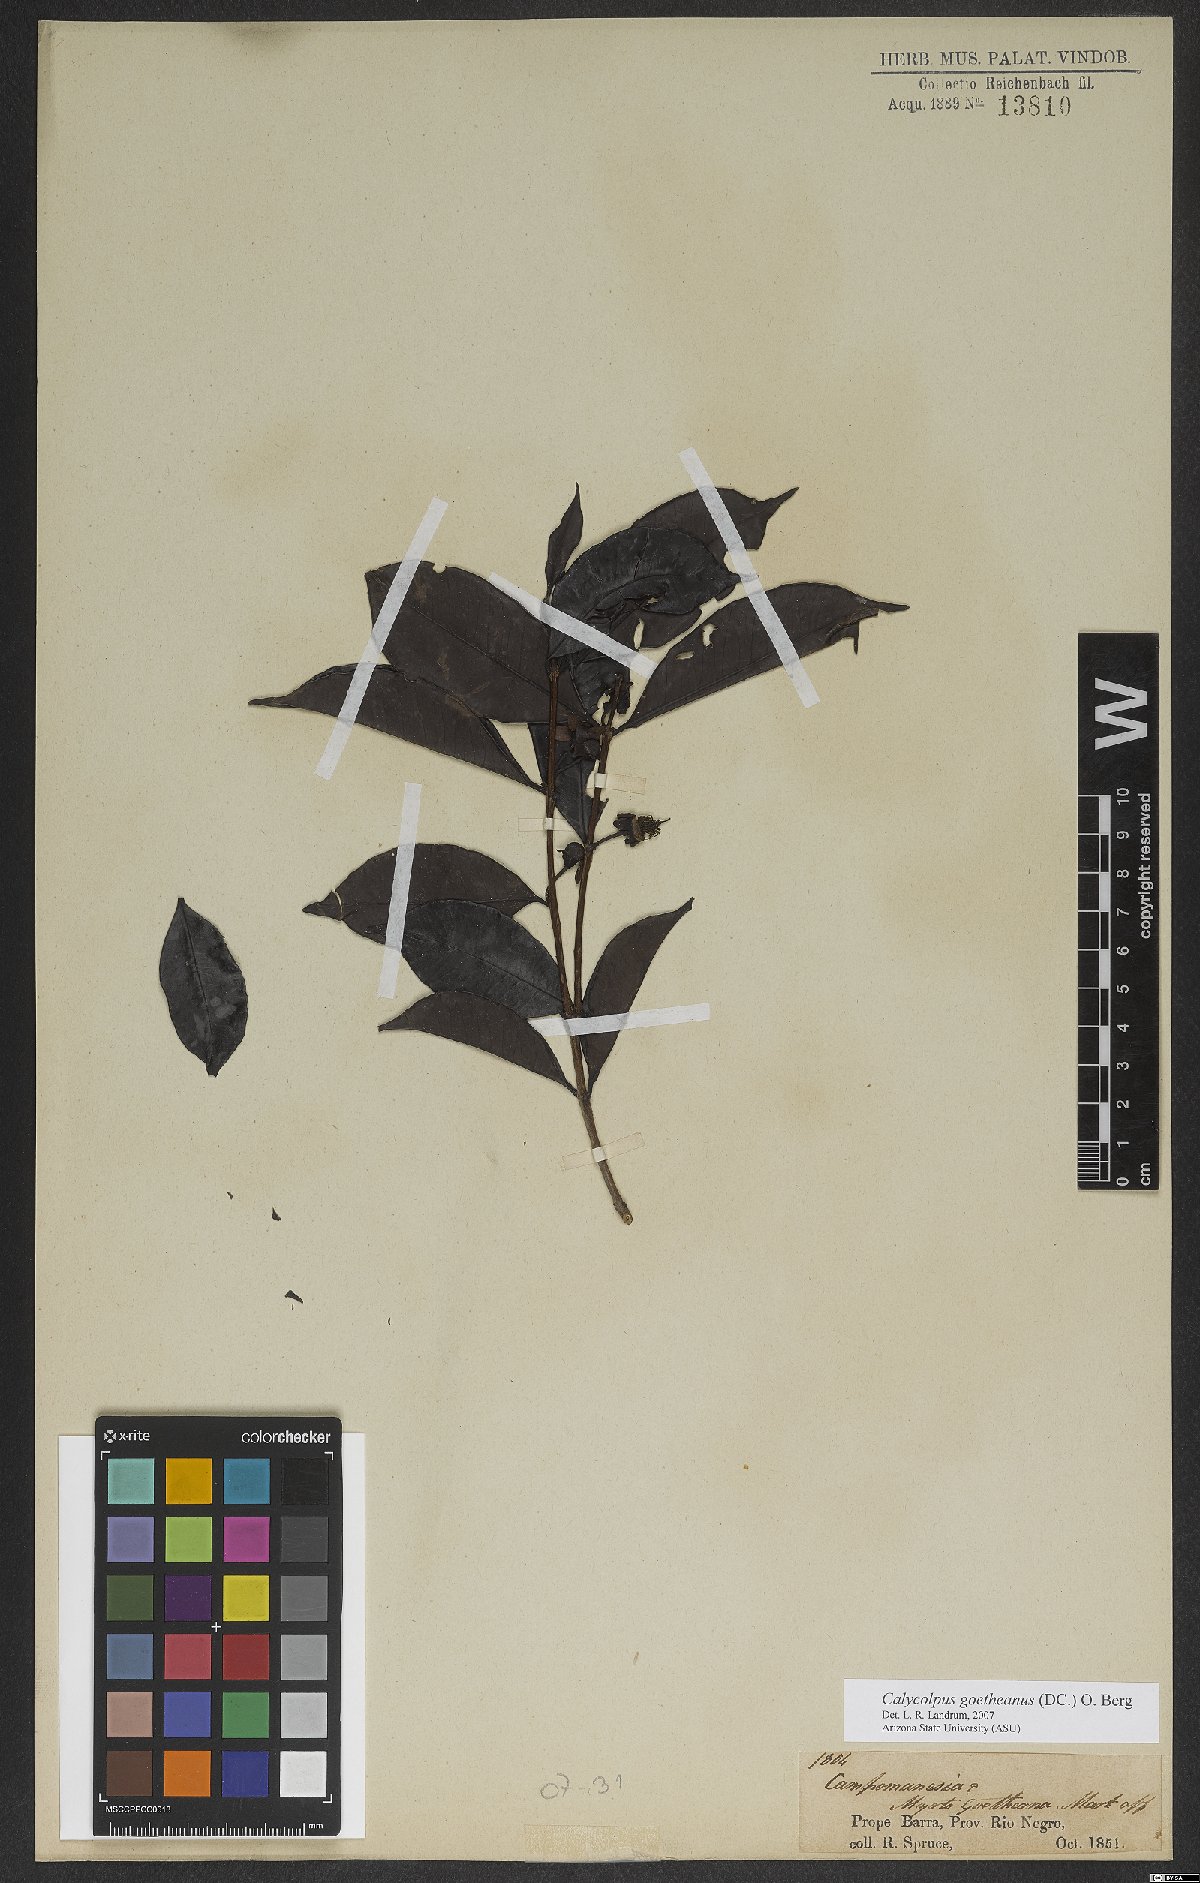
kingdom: Plantae
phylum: Tracheophyta
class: Magnoliopsida
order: Myrtales
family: Myrtaceae
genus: Calycolpus
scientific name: Calycolpus goetheanus
